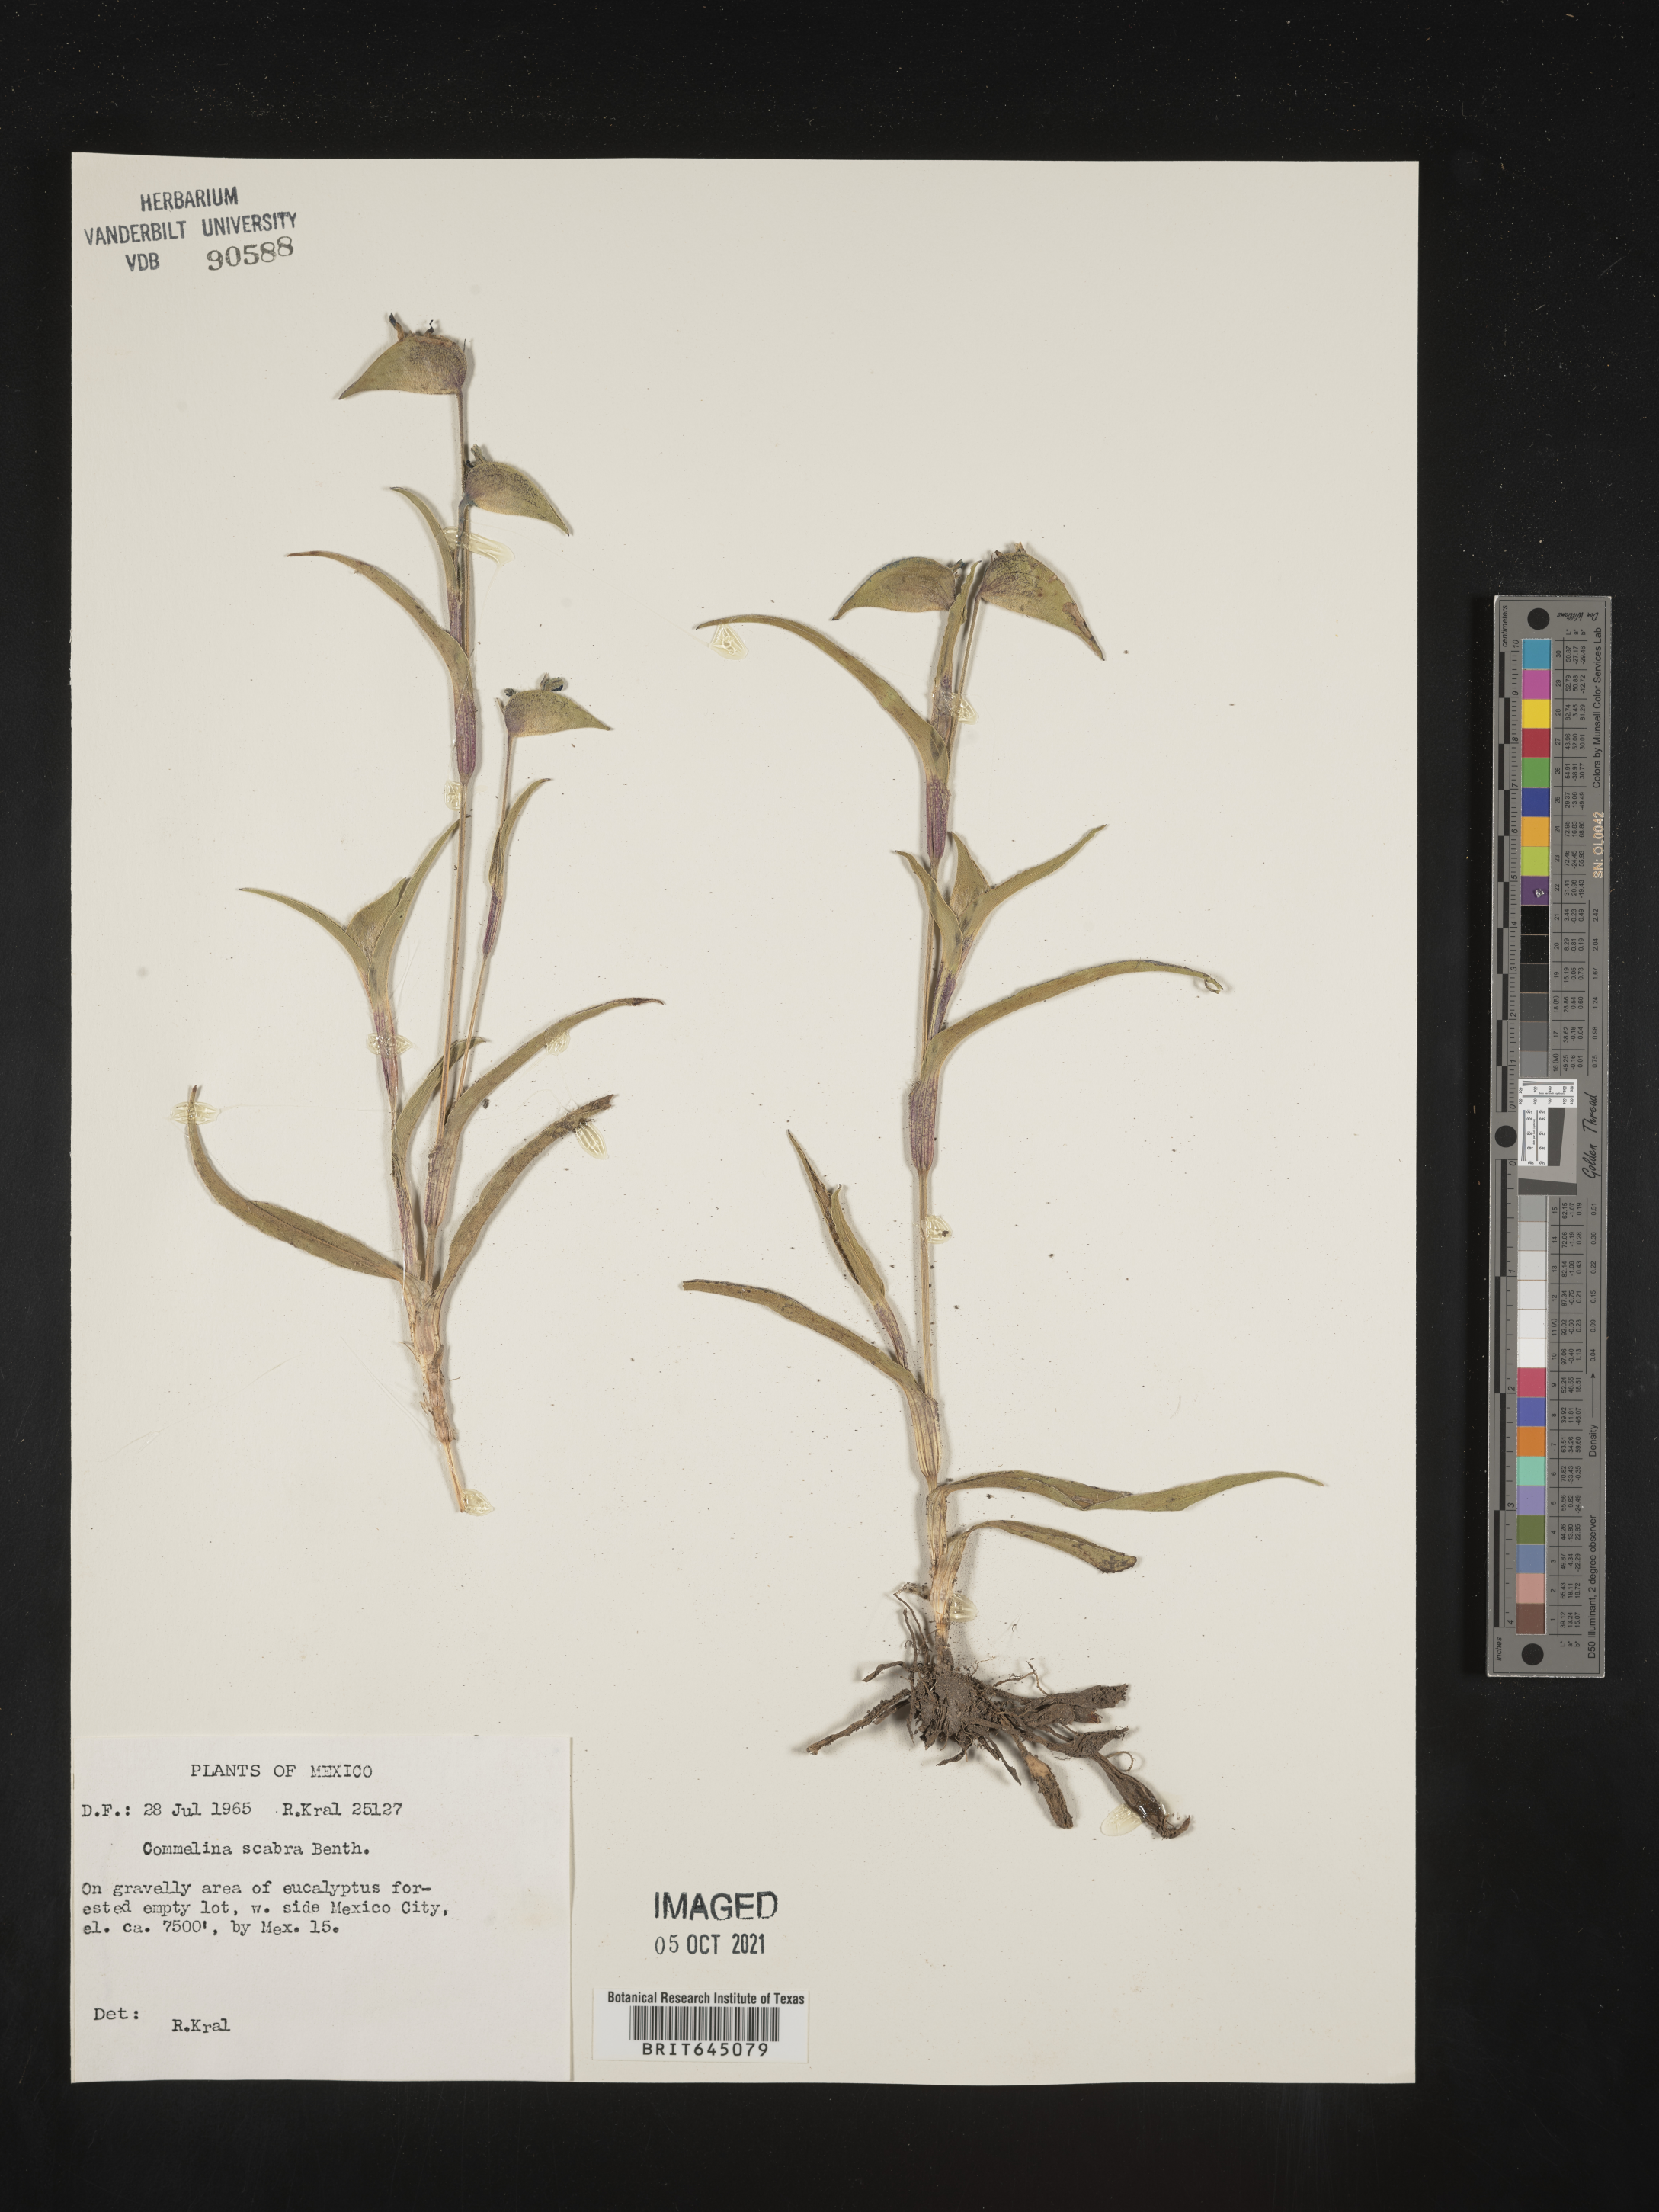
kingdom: Plantae
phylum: Tracheophyta
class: Liliopsida
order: Commelinales
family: Commelinaceae
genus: Commelina
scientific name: Commelina
